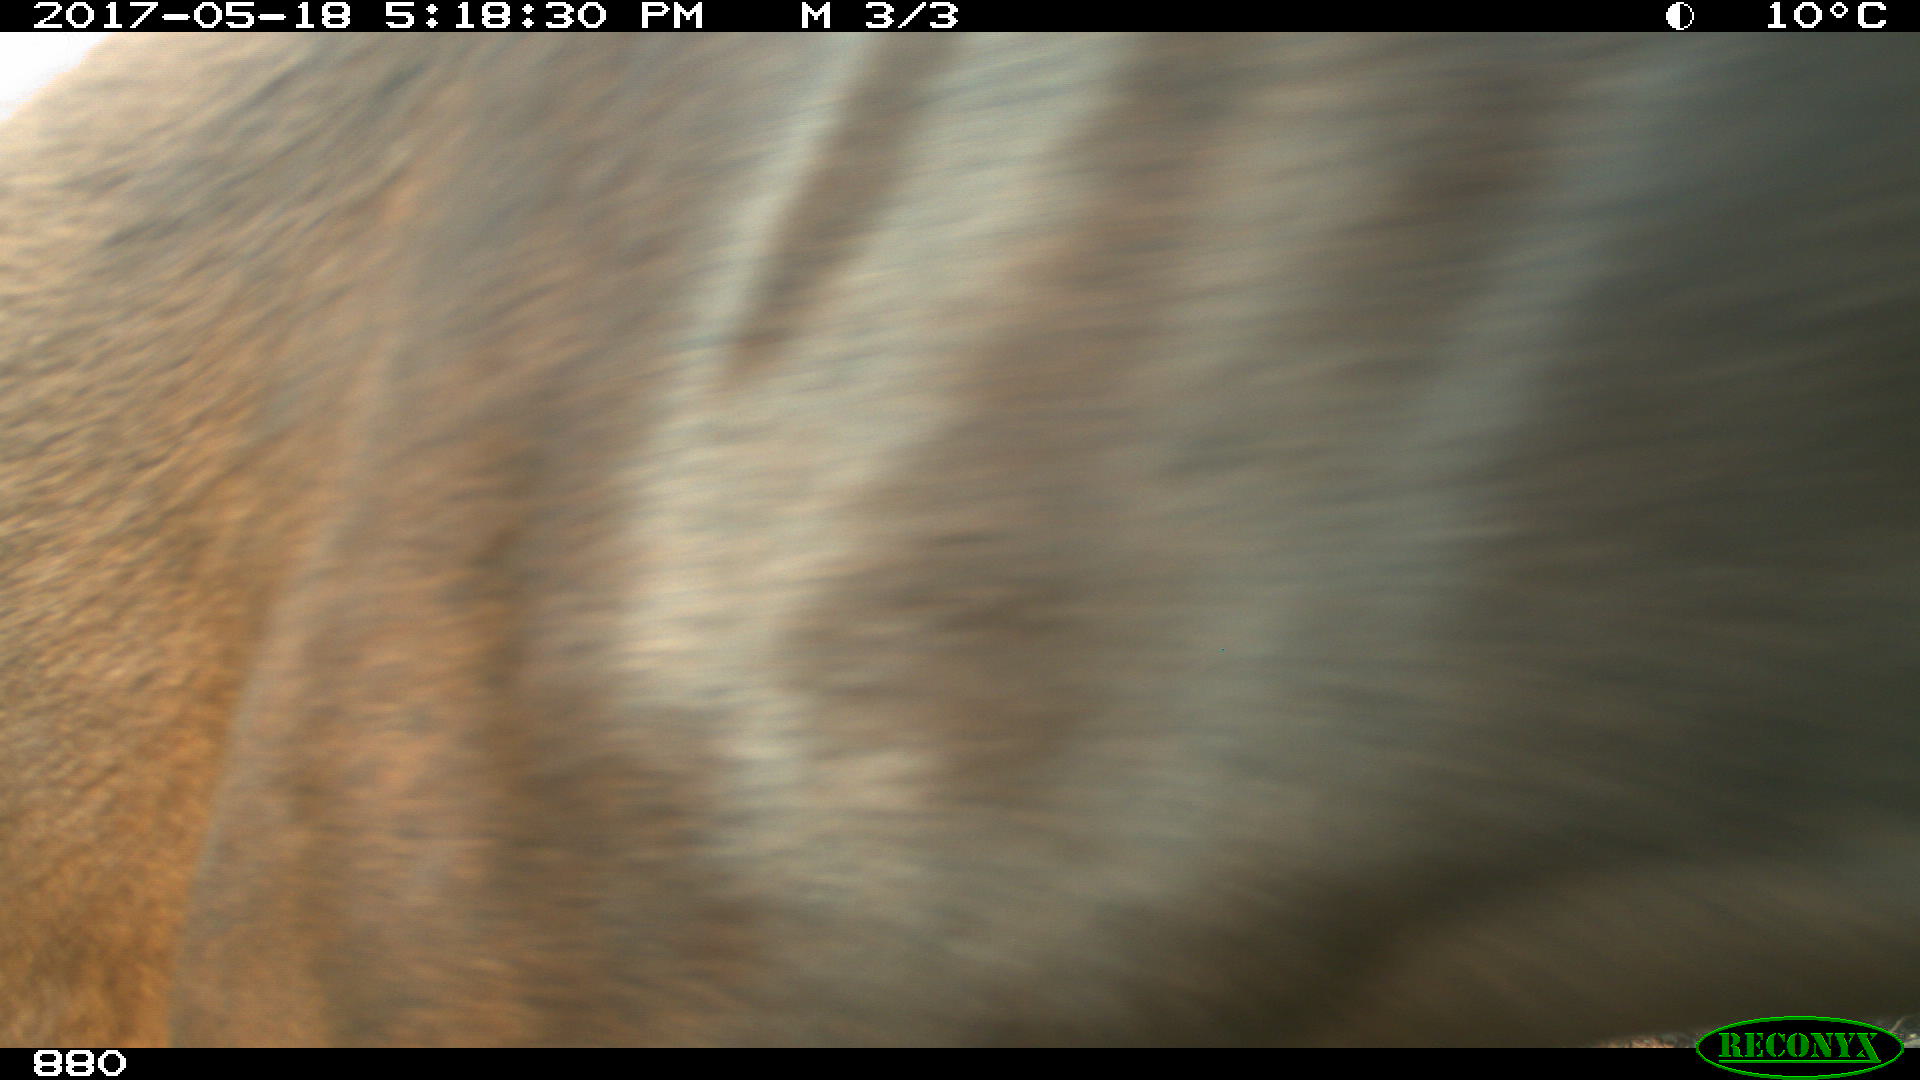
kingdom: Animalia
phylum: Chordata
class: Mammalia
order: Perissodactyla
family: Equidae
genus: Equus
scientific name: Equus caballus
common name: Horse
